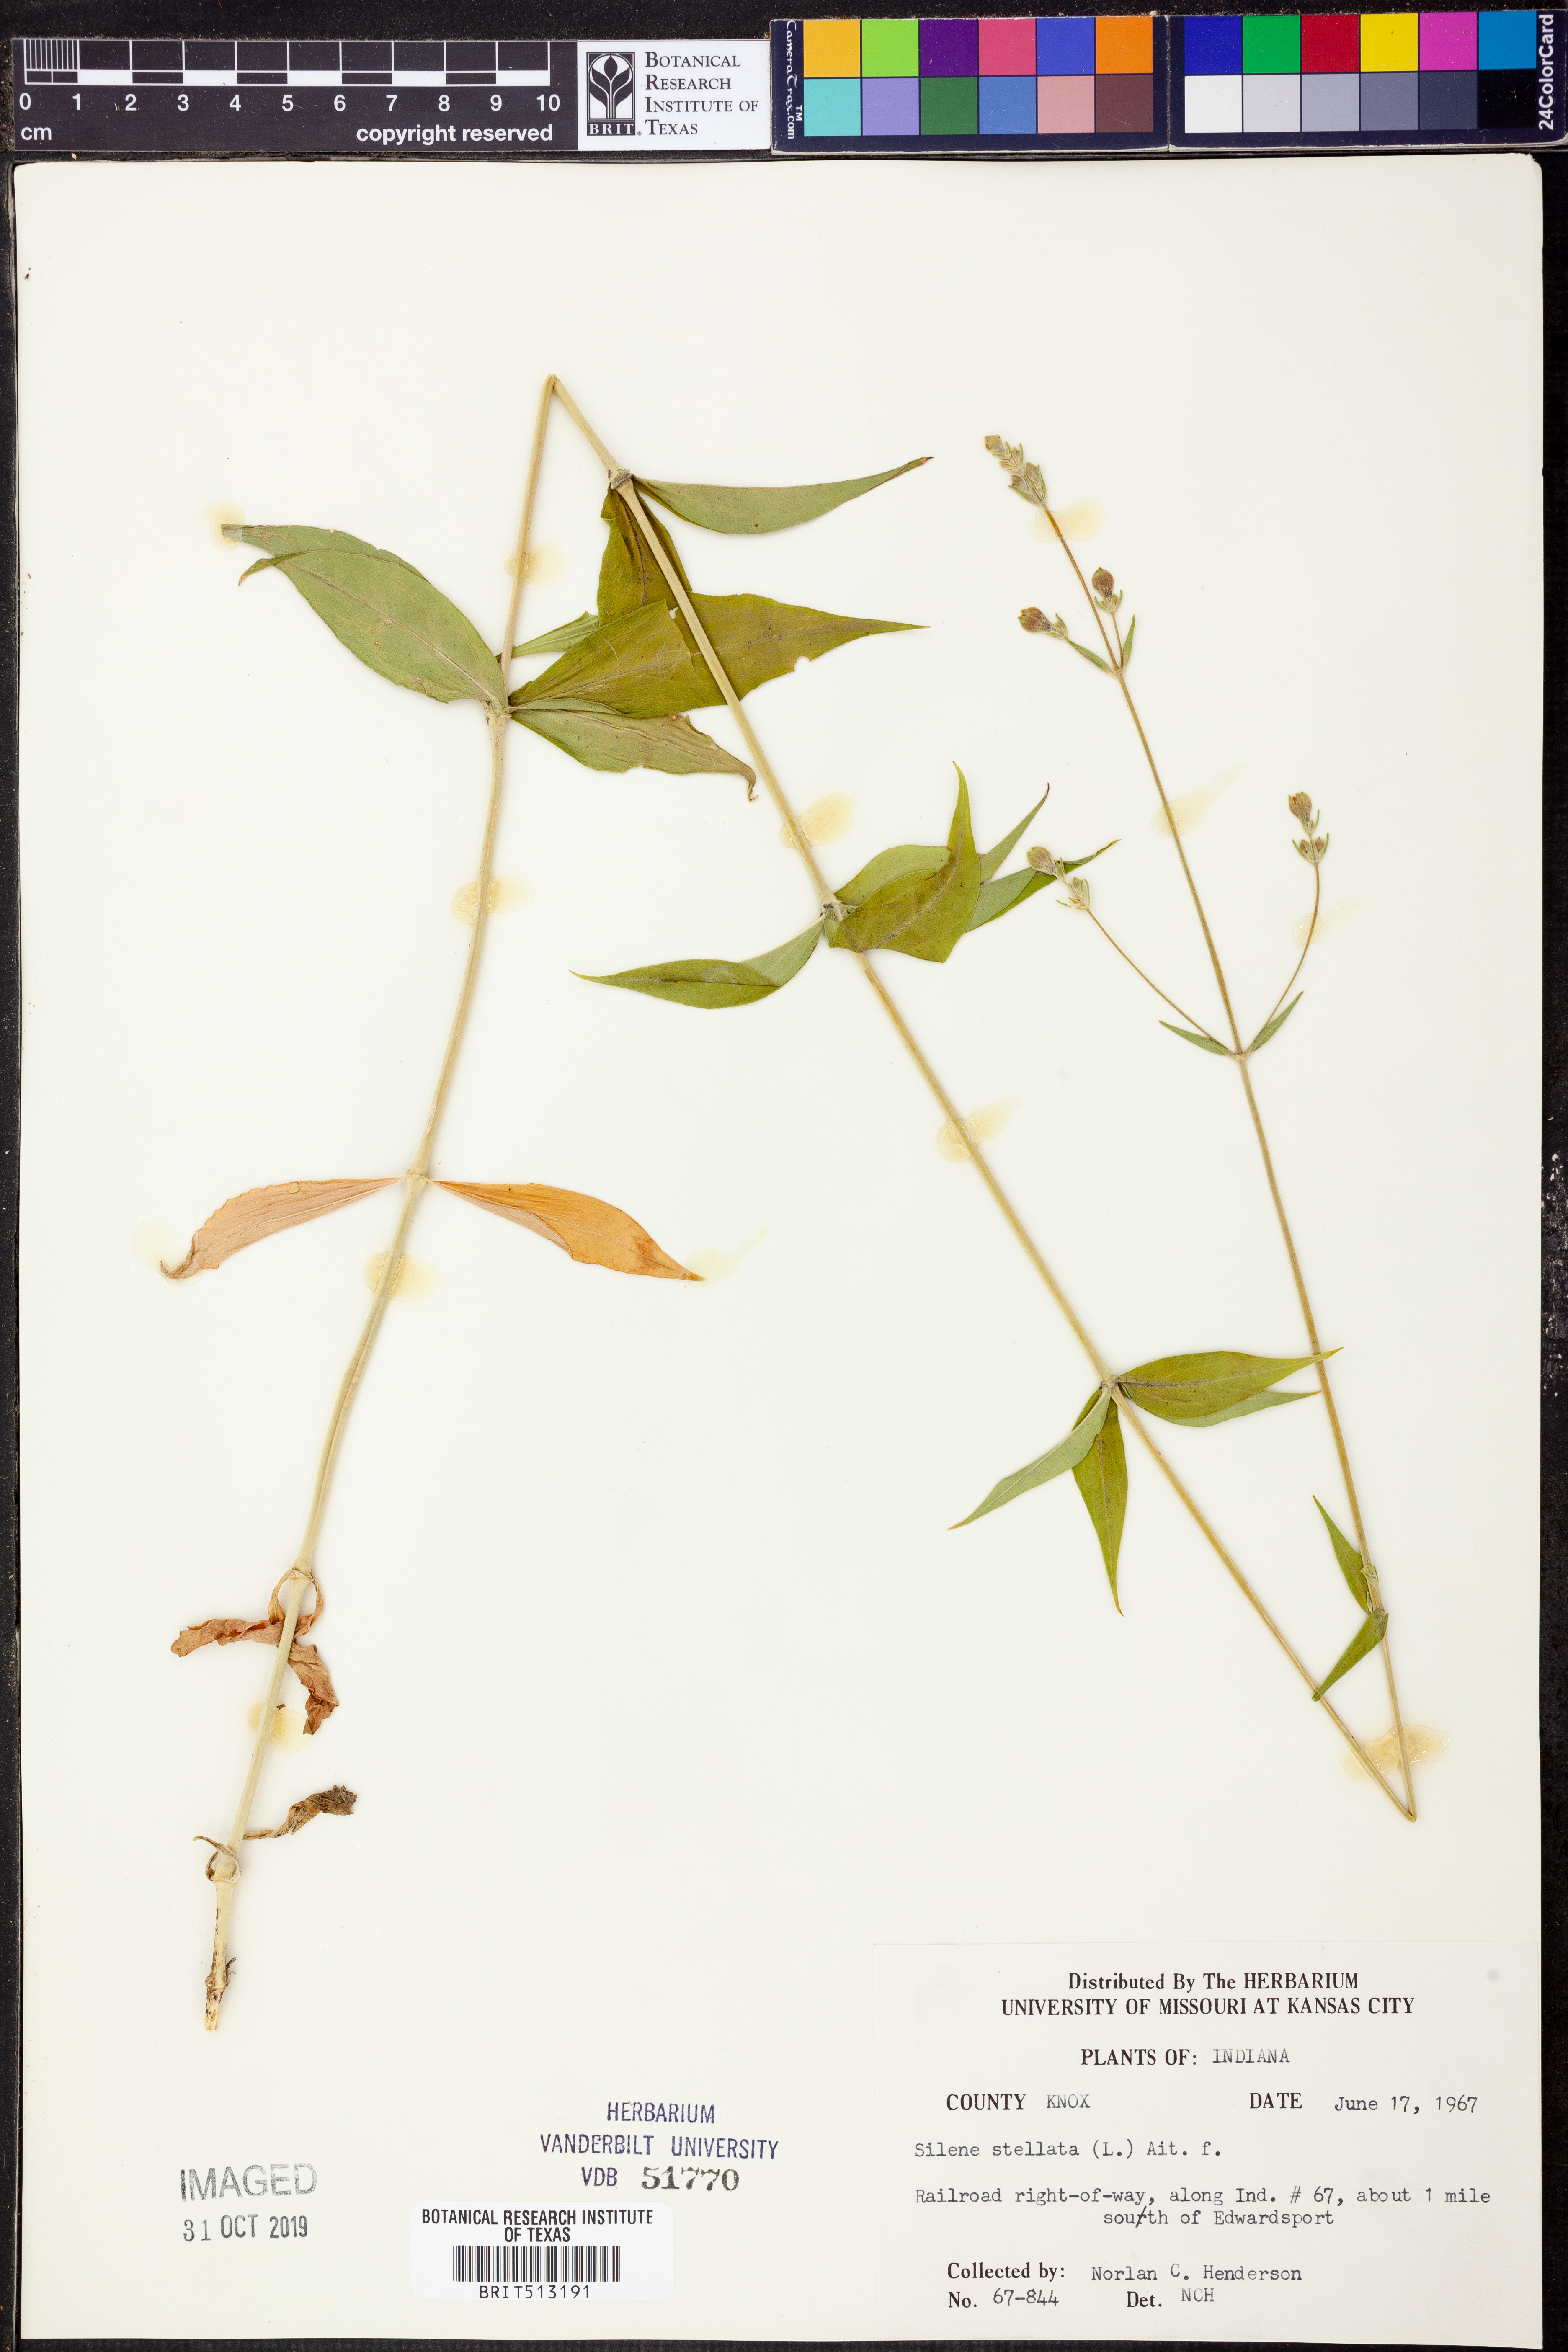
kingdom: Plantae
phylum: Tracheophyta
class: Magnoliopsida
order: Caryophyllales
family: Caryophyllaceae
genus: Silene
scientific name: Silene stellata
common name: Starry campion
